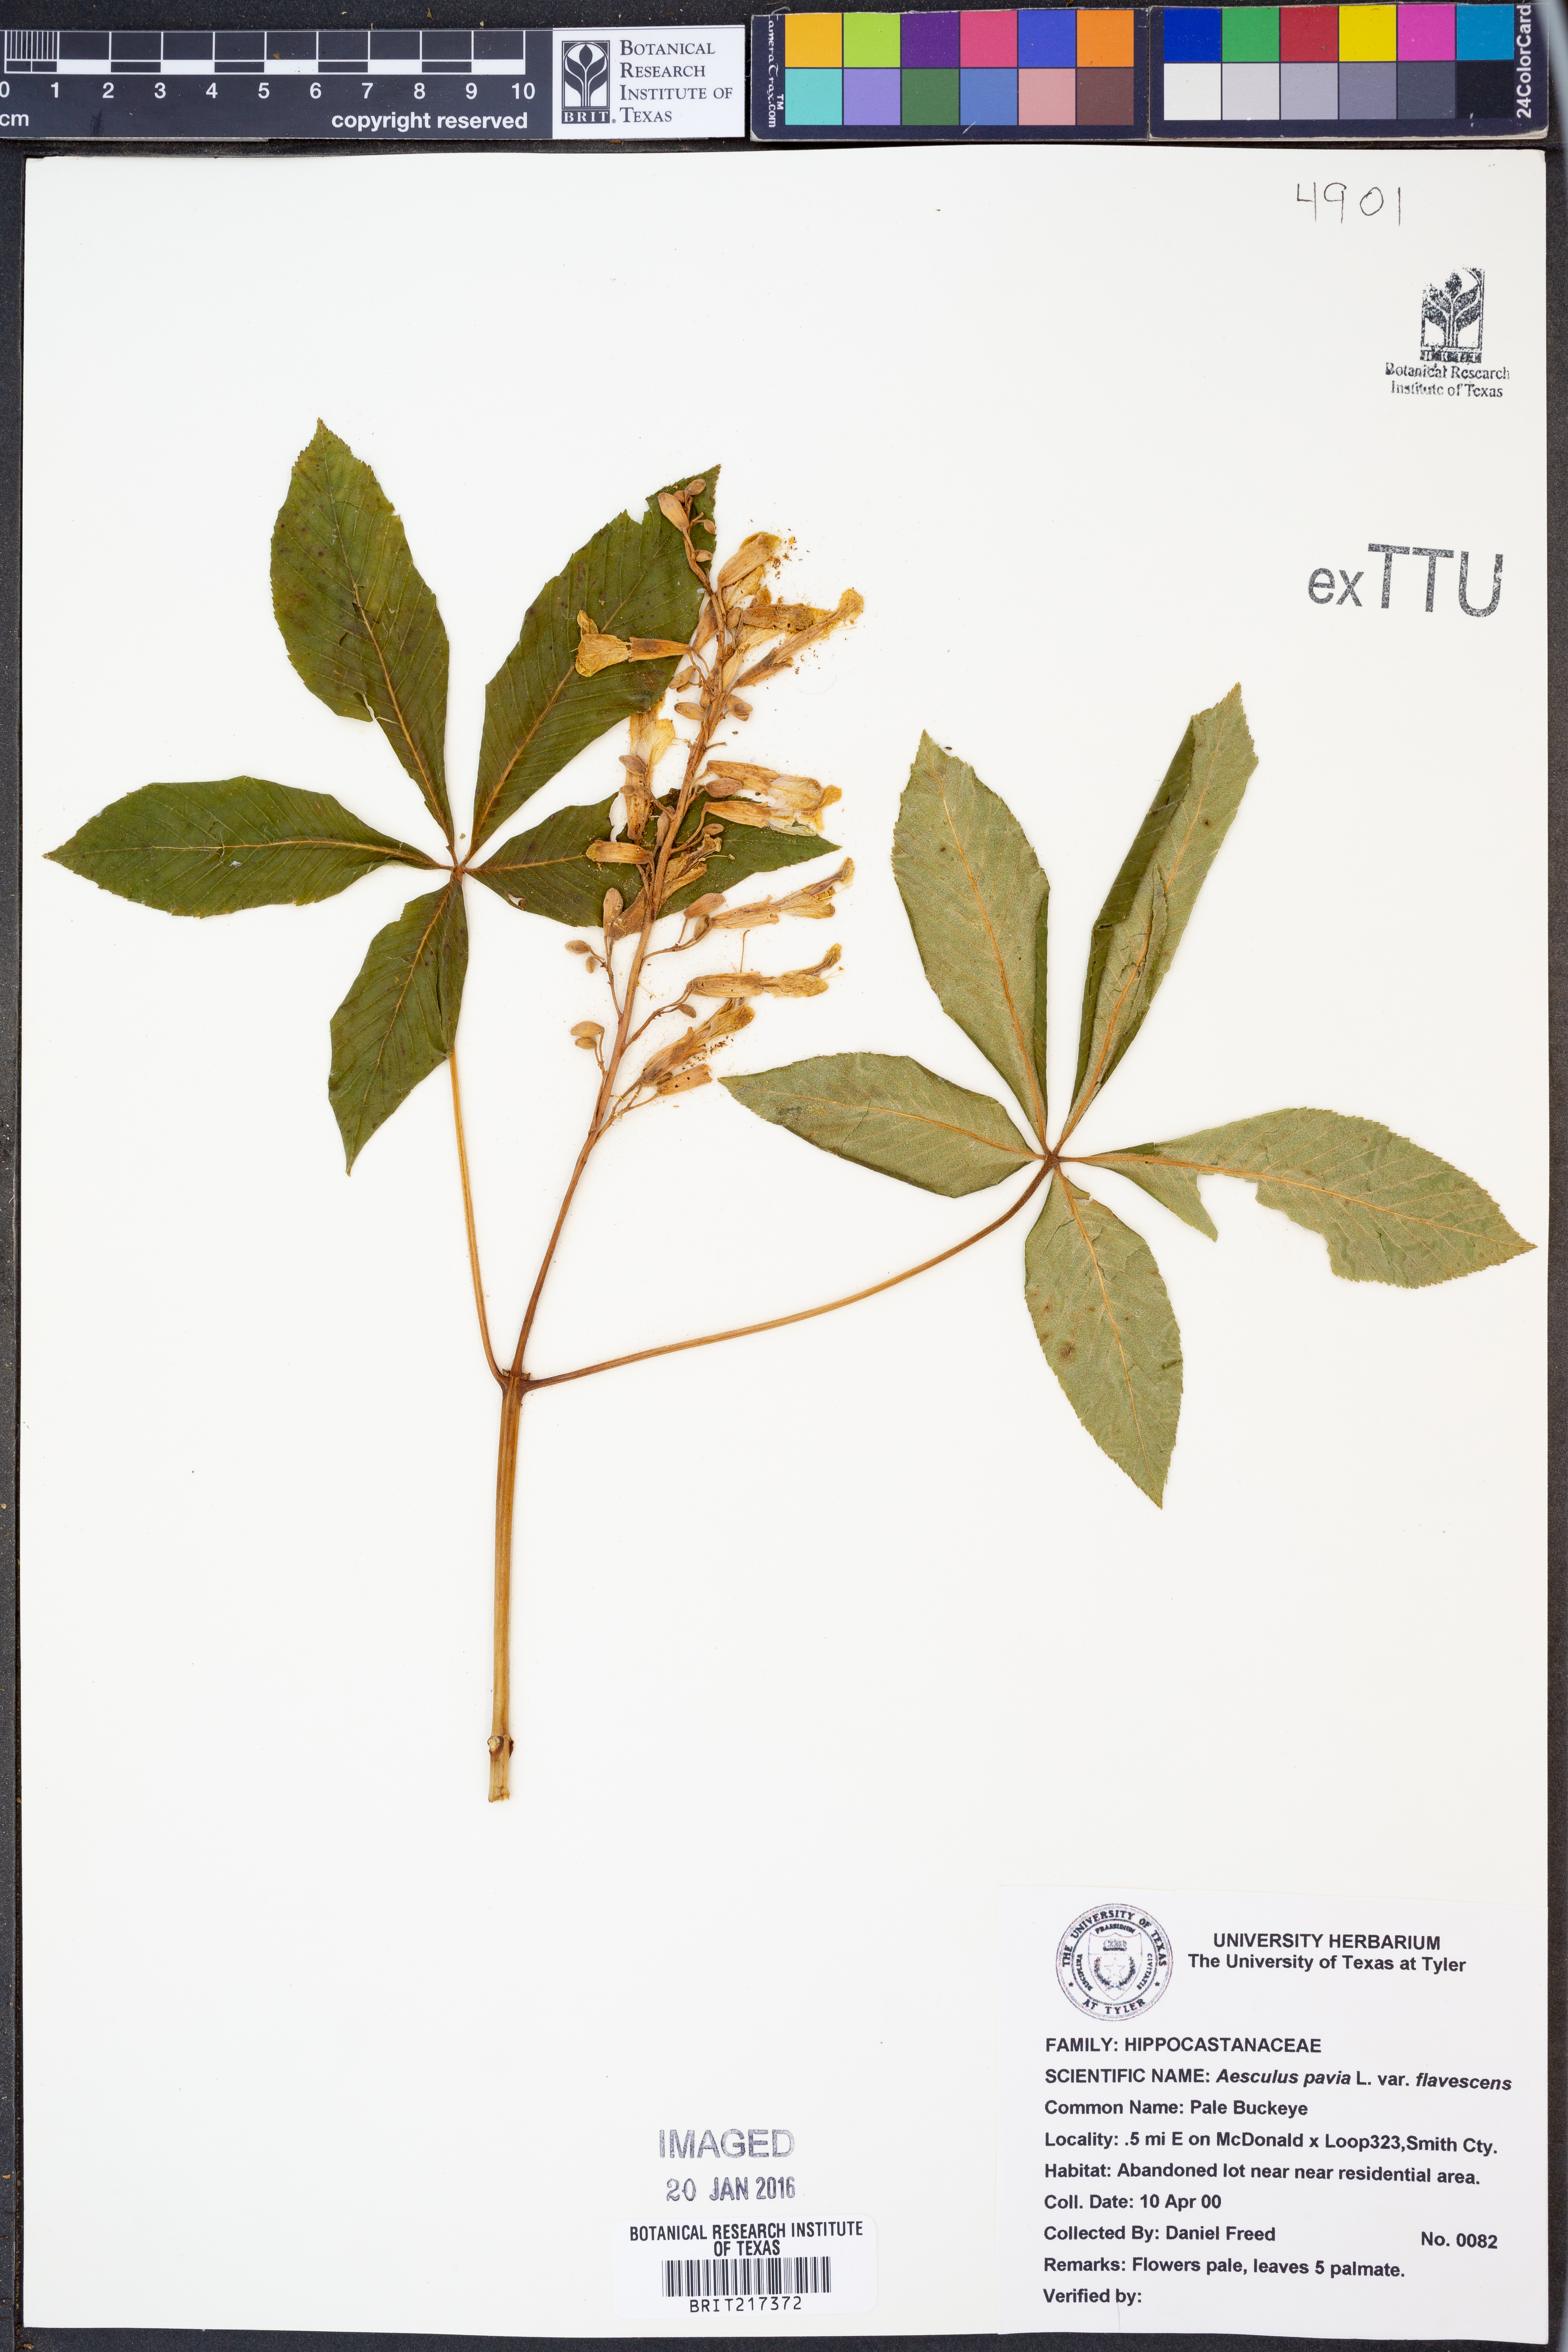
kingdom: Plantae
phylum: Tracheophyta
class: Magnoliopsida
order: Sapindales
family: Sapindaceae
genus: Aesculus
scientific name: Aesculus pavia
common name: Red buckeye
